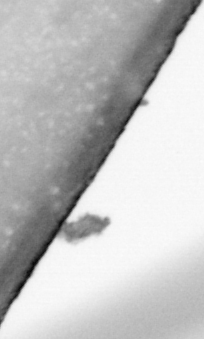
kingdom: Animalia
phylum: Chordata
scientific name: Chordata
